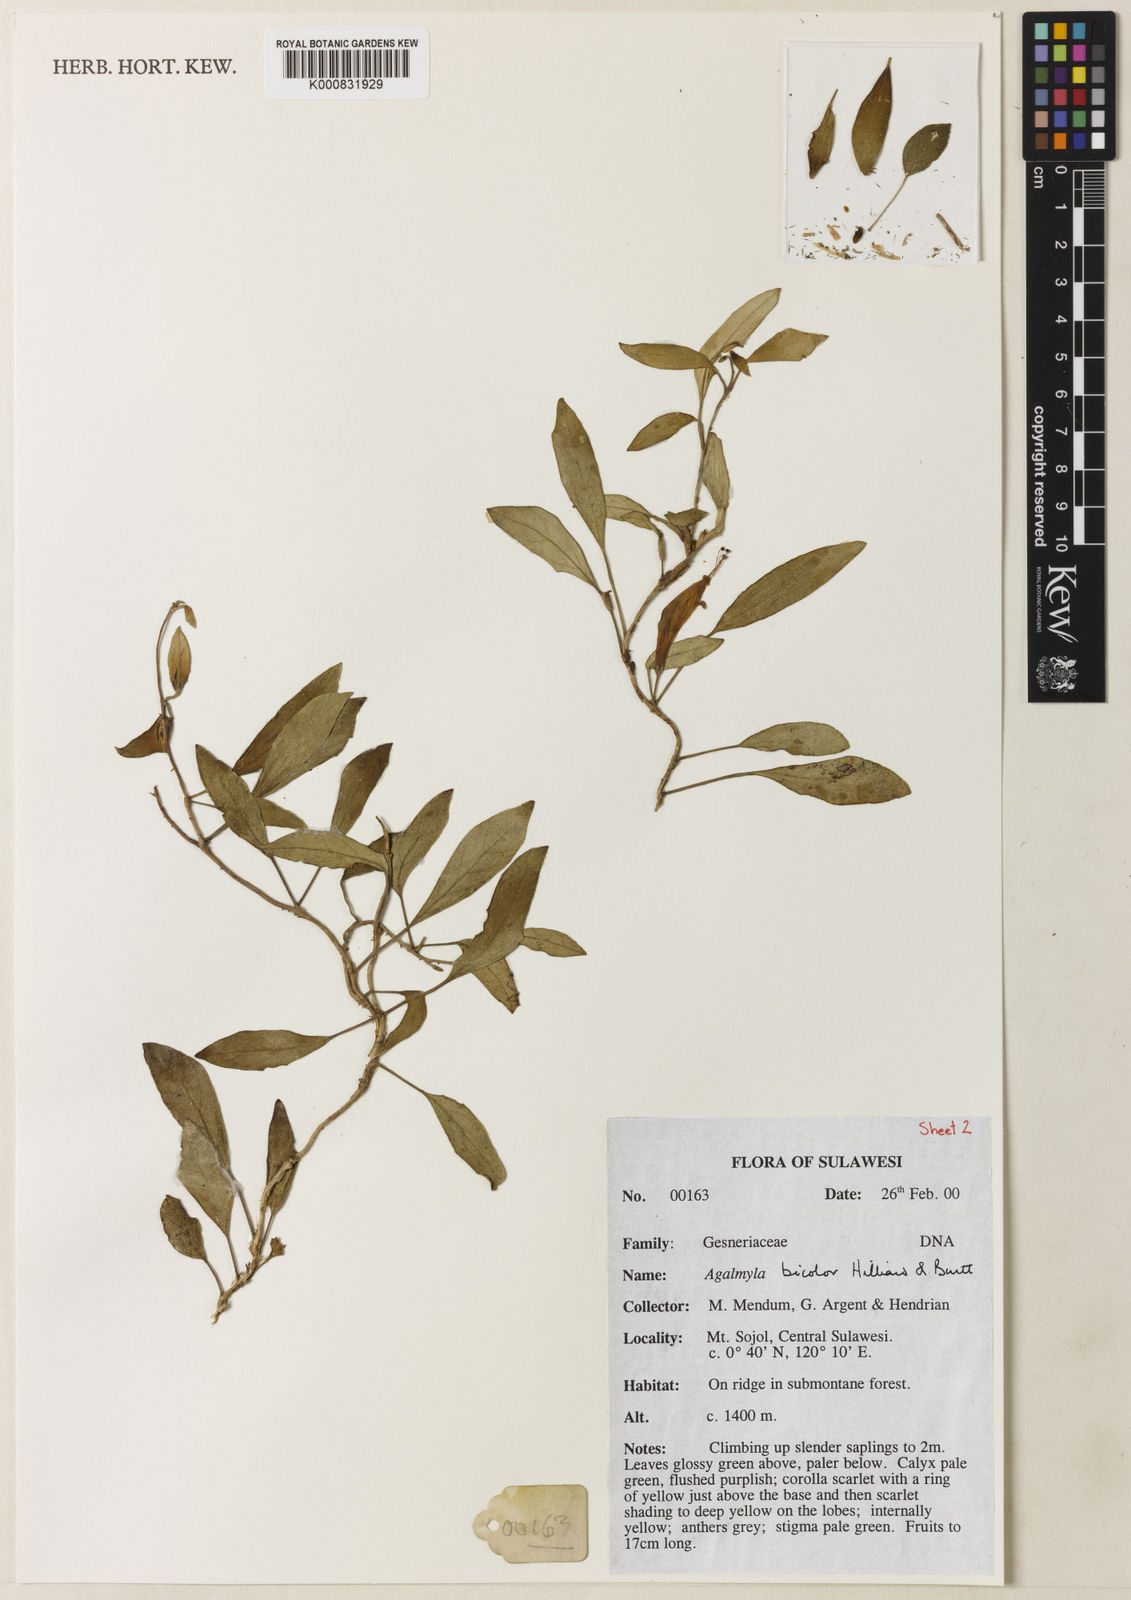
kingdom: Plantae
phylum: Tracheophyta
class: Magnoliopsida
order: Lamiales
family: Gesneriaceae
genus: Agalmyla
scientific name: Agalmyla bicolor
